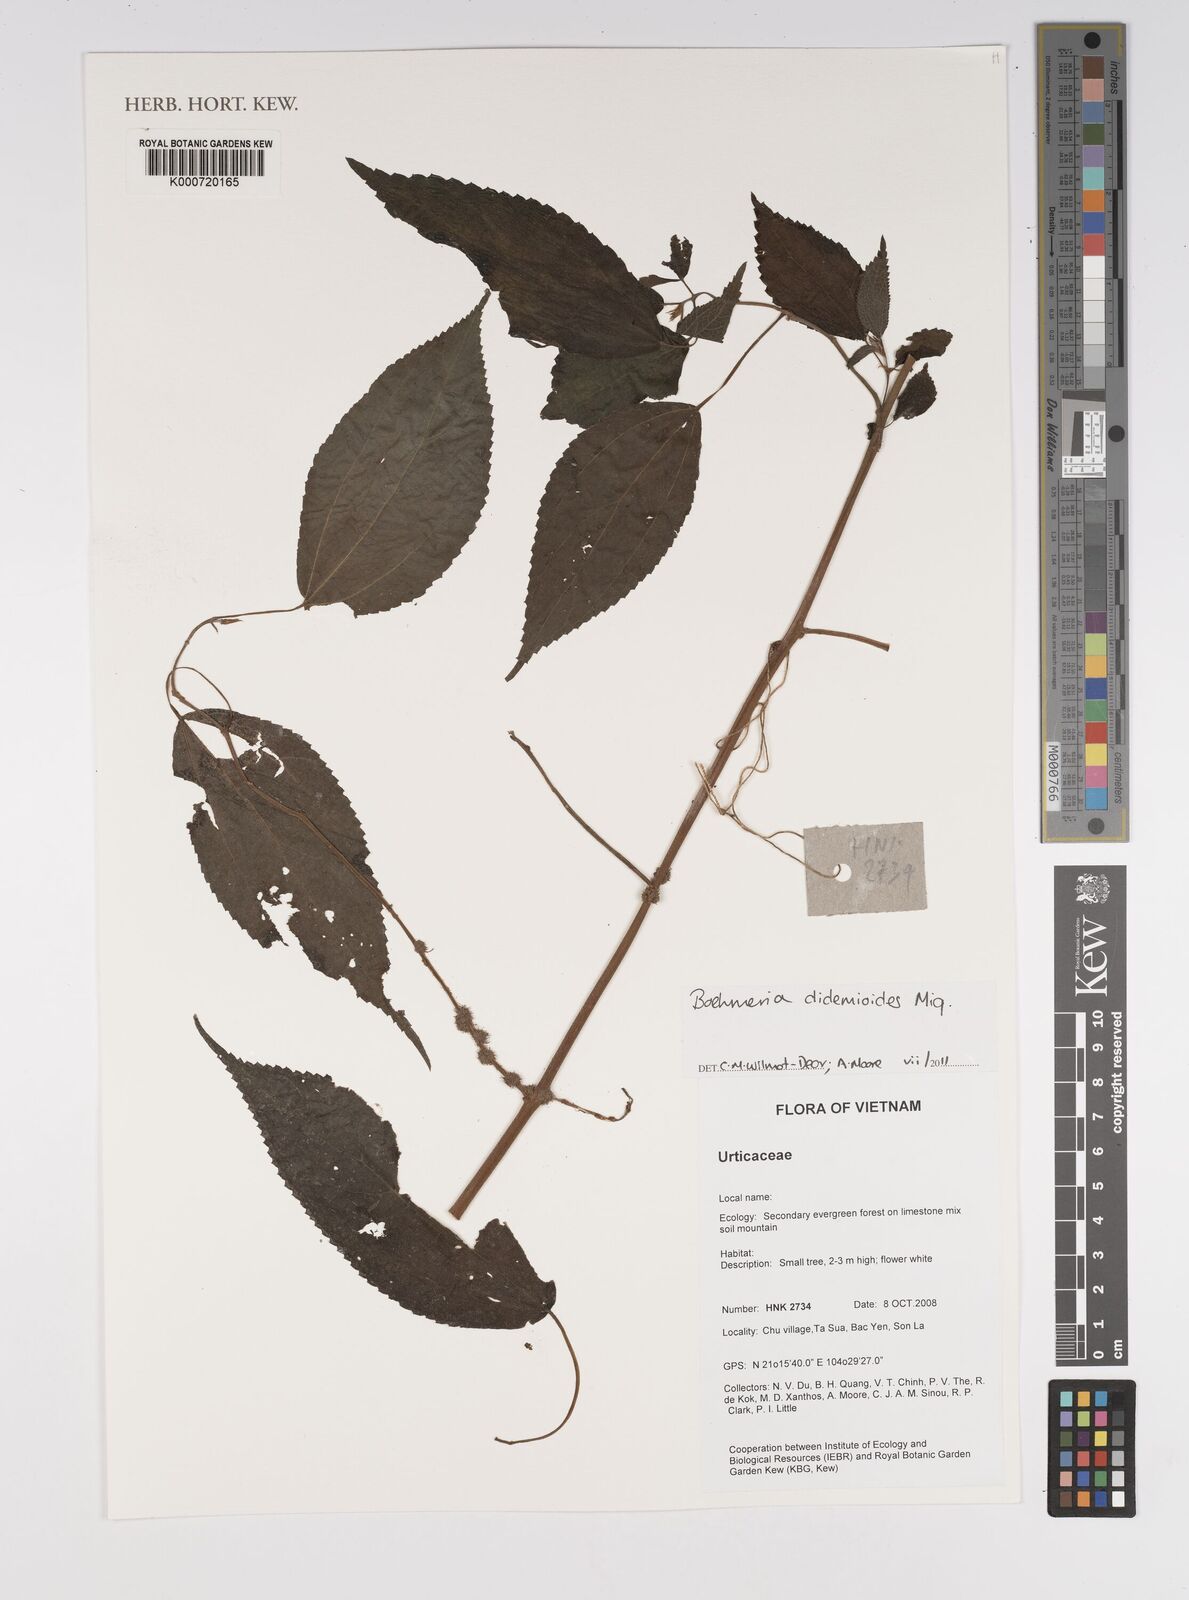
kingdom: Plantae
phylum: Tracheophyta
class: Magnoliopsida
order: Rosales
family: Urticaceae
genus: Boehmeria
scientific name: Boehmeria clidemioides
